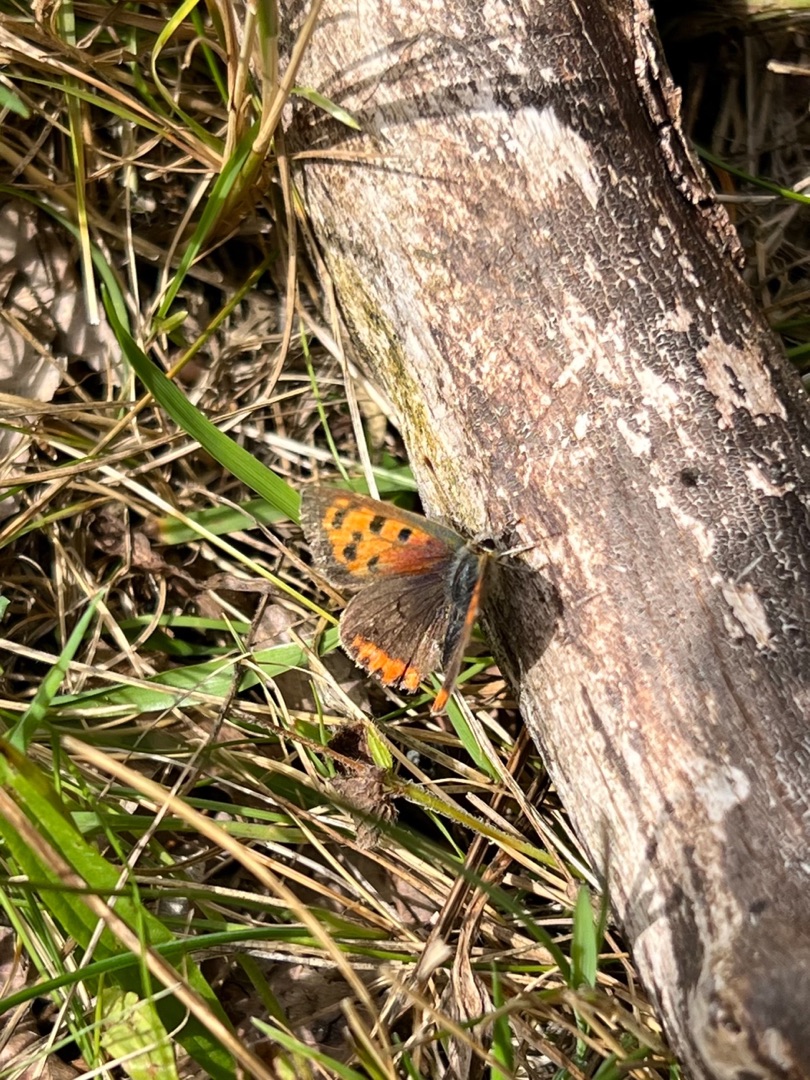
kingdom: Animalia
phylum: Arthropoda
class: Insecta
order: Lepidoptera
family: Lycaenidae
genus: Lycaena
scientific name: Lycaena phlaeas
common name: Lille ildfugl
